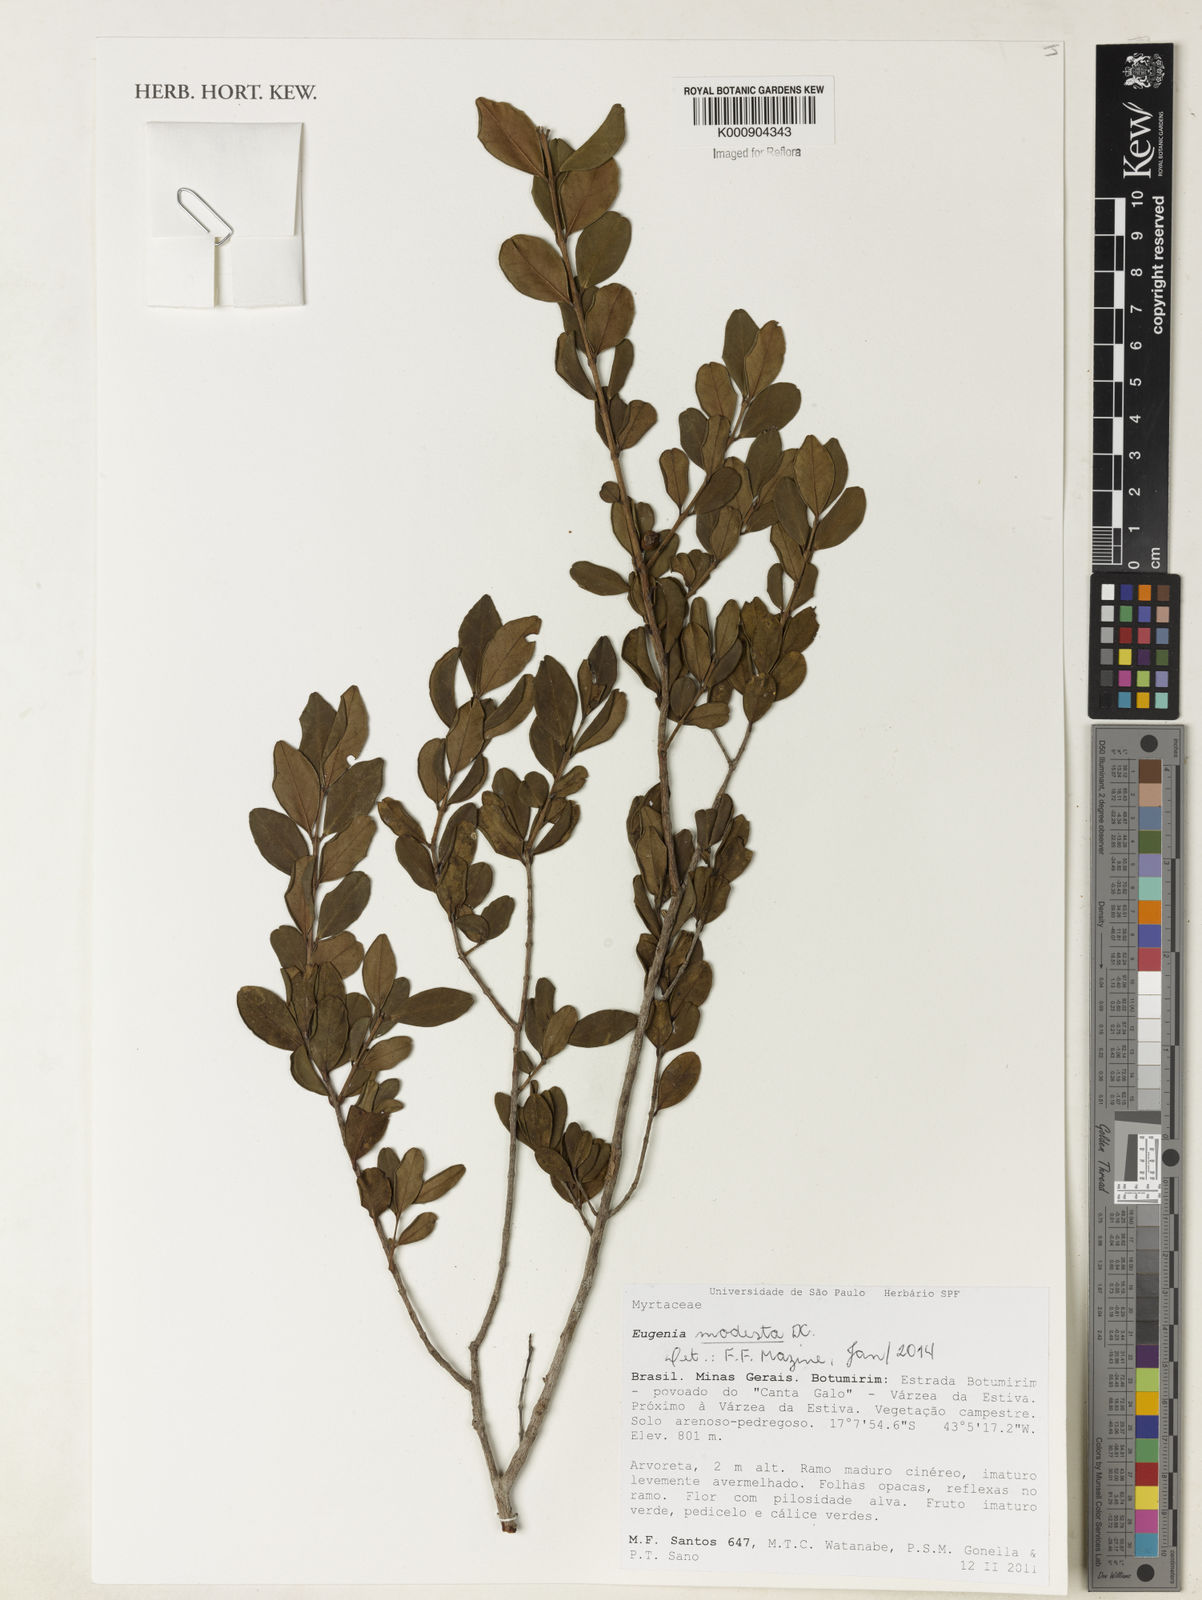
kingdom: Plantae
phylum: Tracheophyta
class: Magnoliopsida
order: Myrtales
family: Myrtaceae
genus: Eugenia
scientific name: Eugenia modesta
